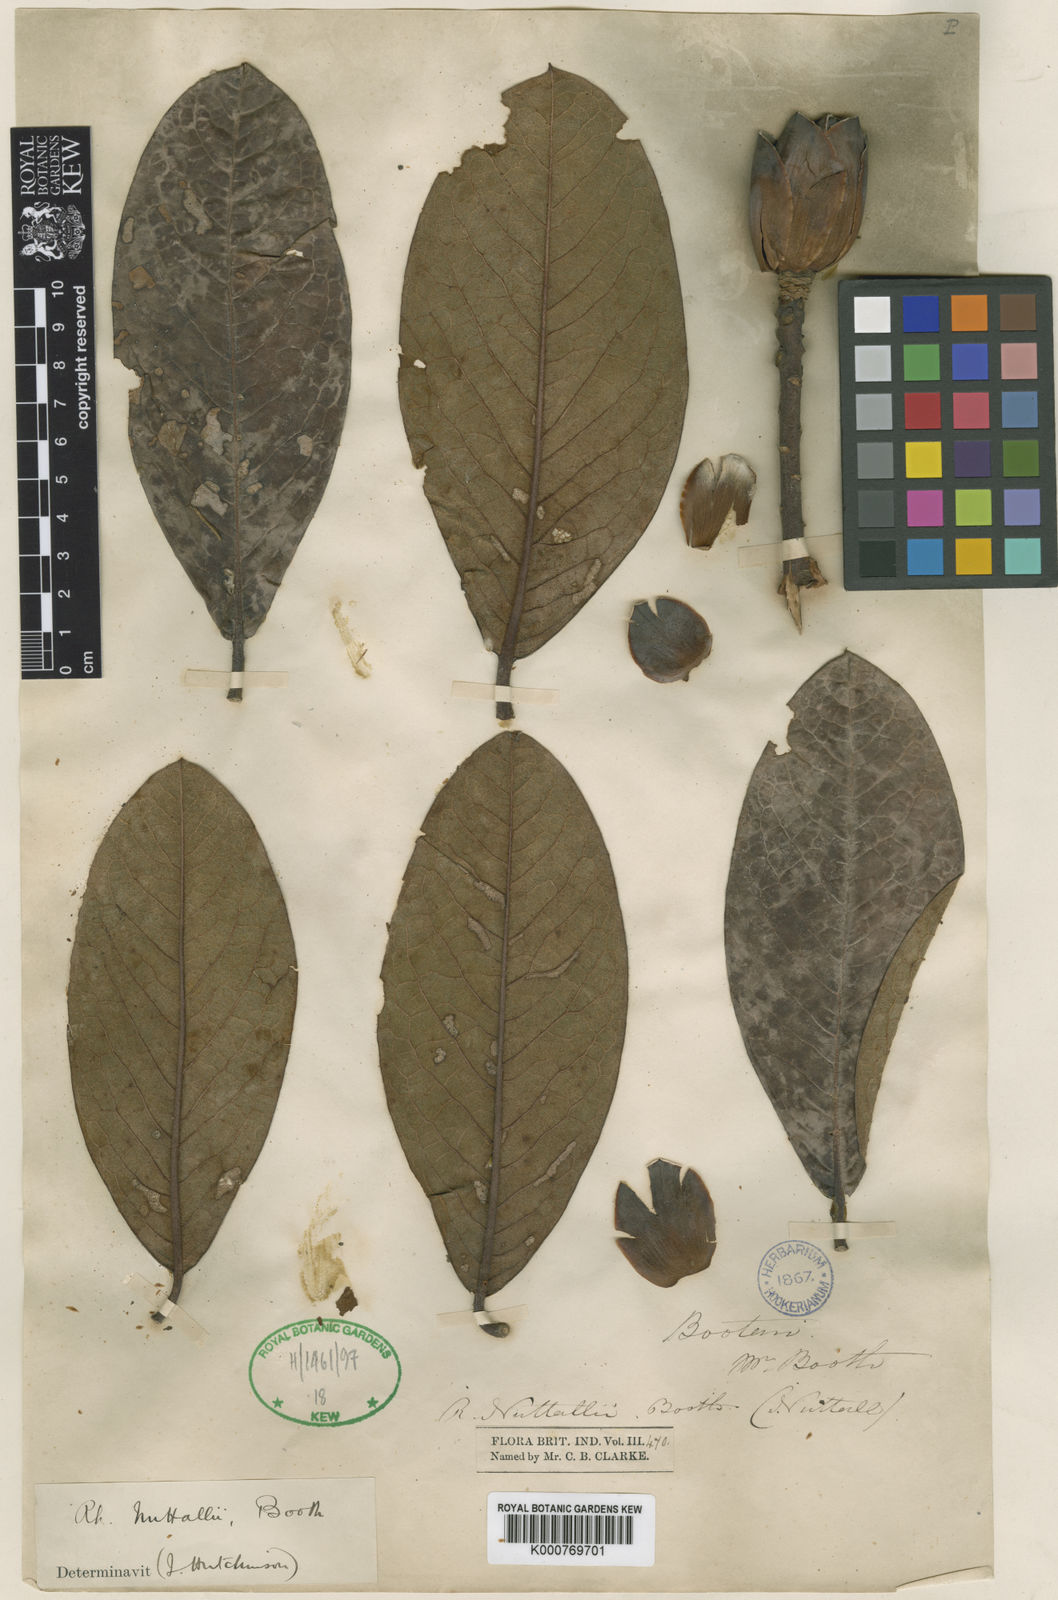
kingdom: Plantae
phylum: Tracheophyta
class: Magnoliopsida
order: Ericales
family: Ericaceae
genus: Rhododendron
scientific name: Rhododendron nuttallii
